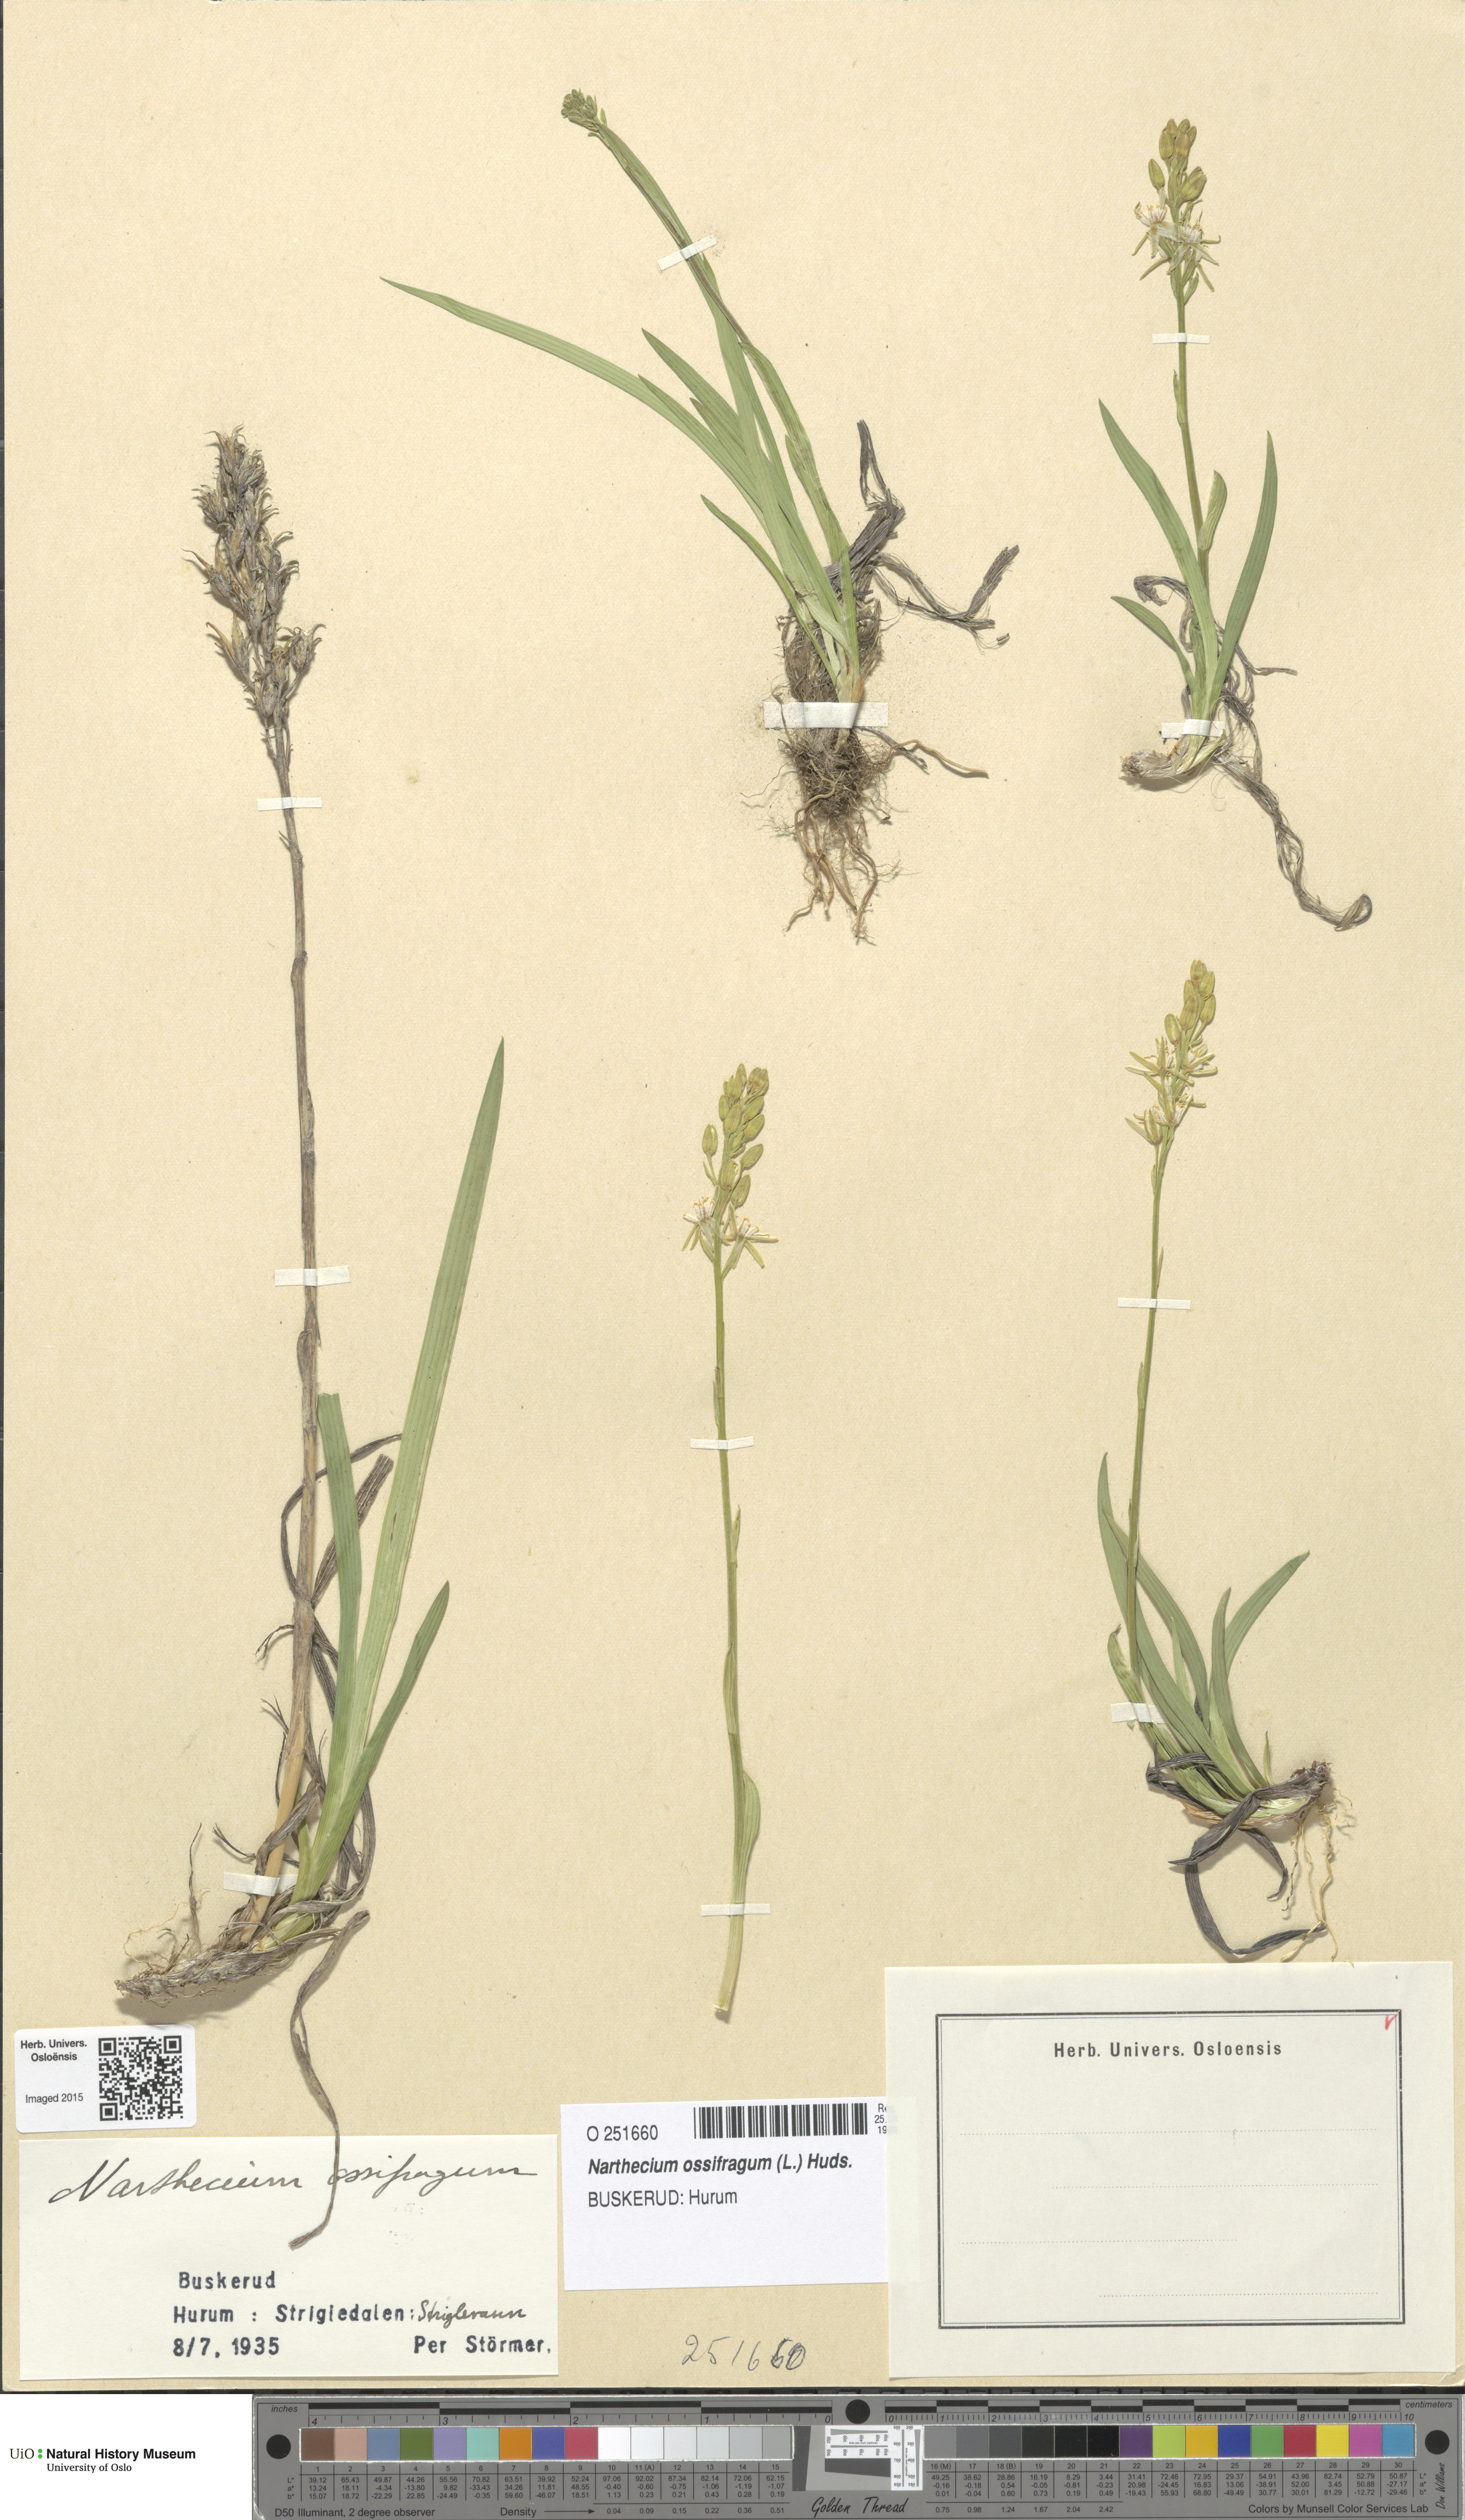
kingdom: Plantae
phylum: Tracheophyta
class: Liliopsida
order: Dioscoreales
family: Nartheciaceae
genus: Narthecium
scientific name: Narthecium ossifragum
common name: Bog asphodel
